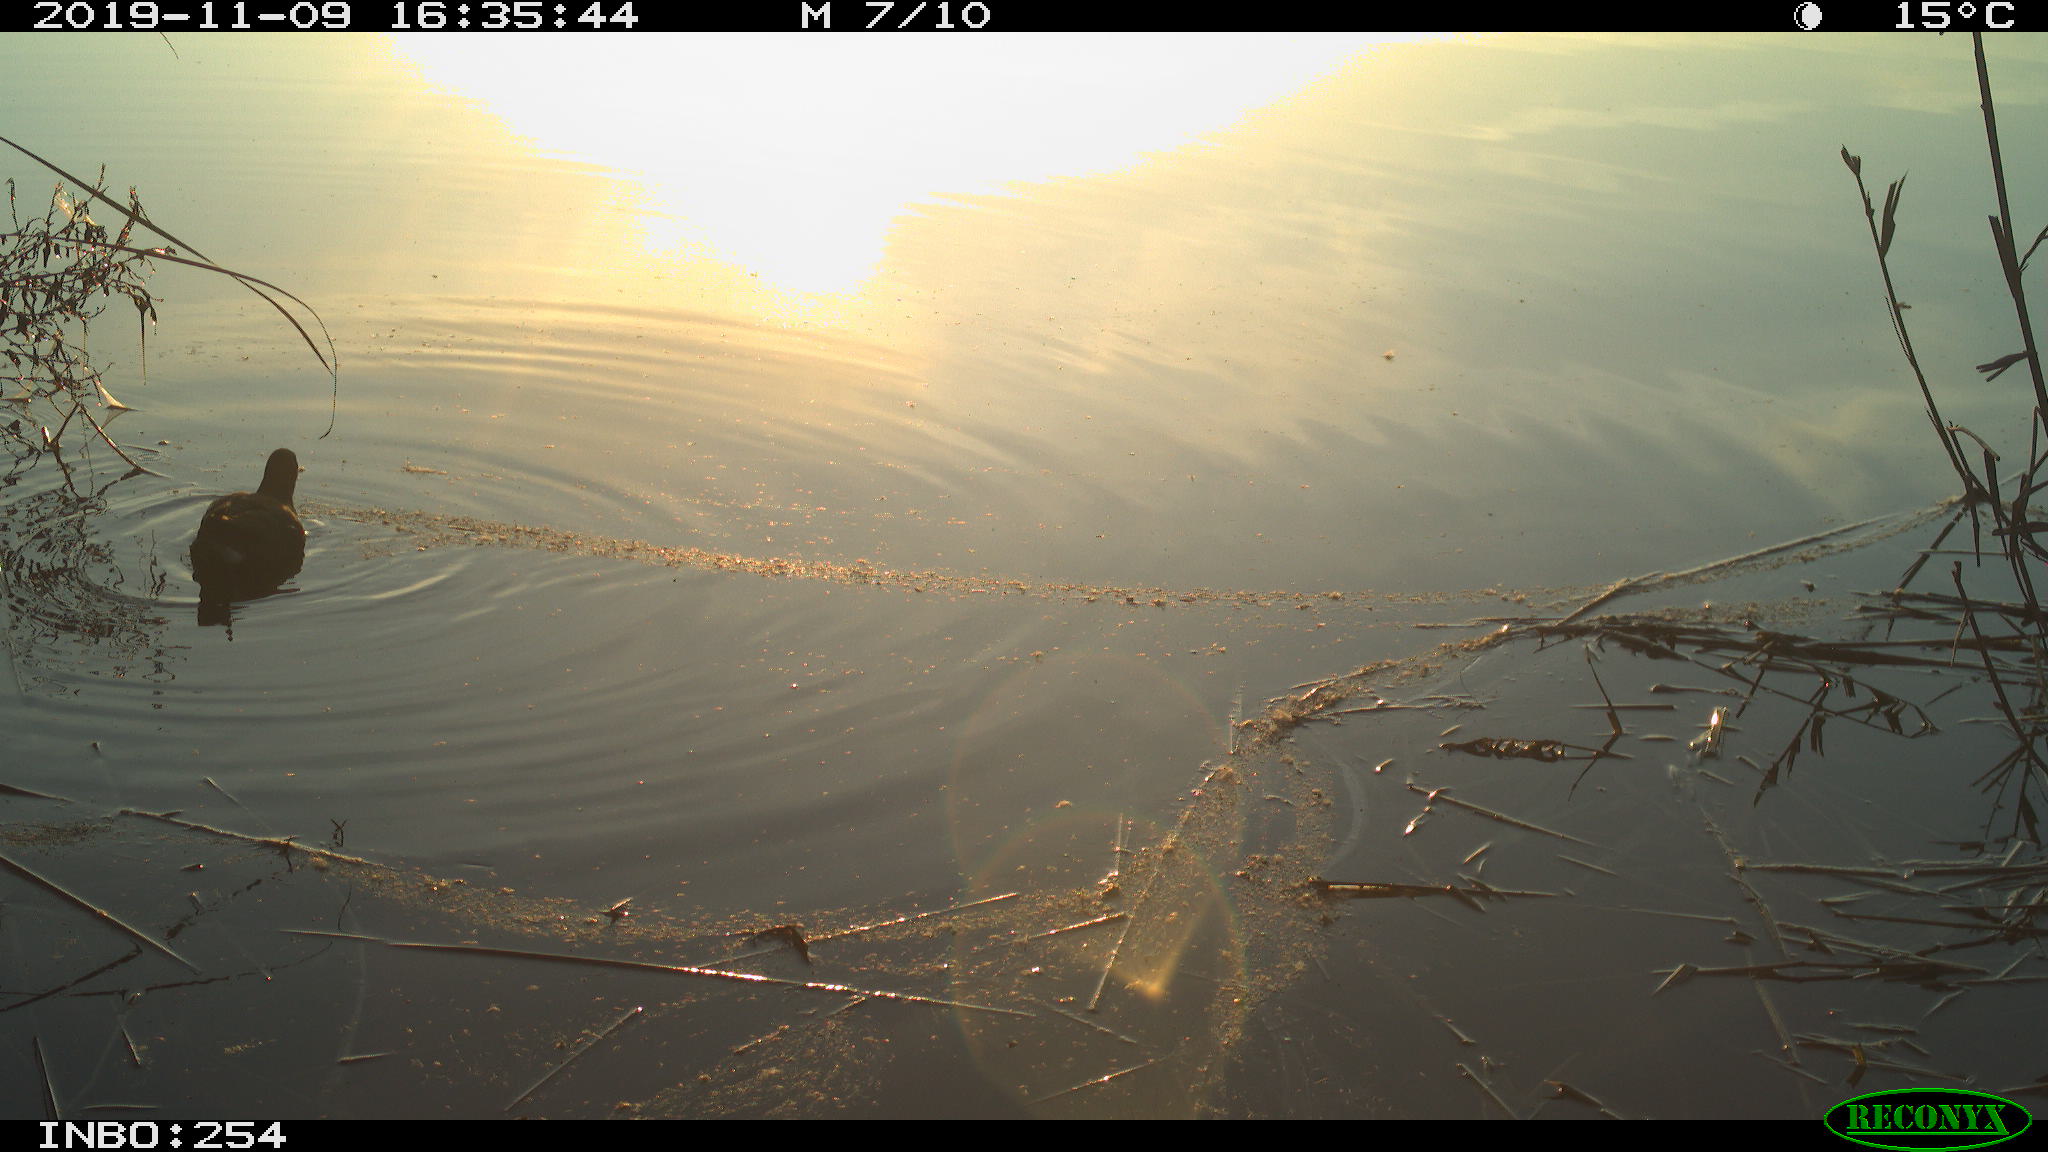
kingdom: Animalia
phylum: Chordata
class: Aves
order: Gruiformes
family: Rallidae
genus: Gallinula
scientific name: Gallinula chloropus
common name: Common moorhen
